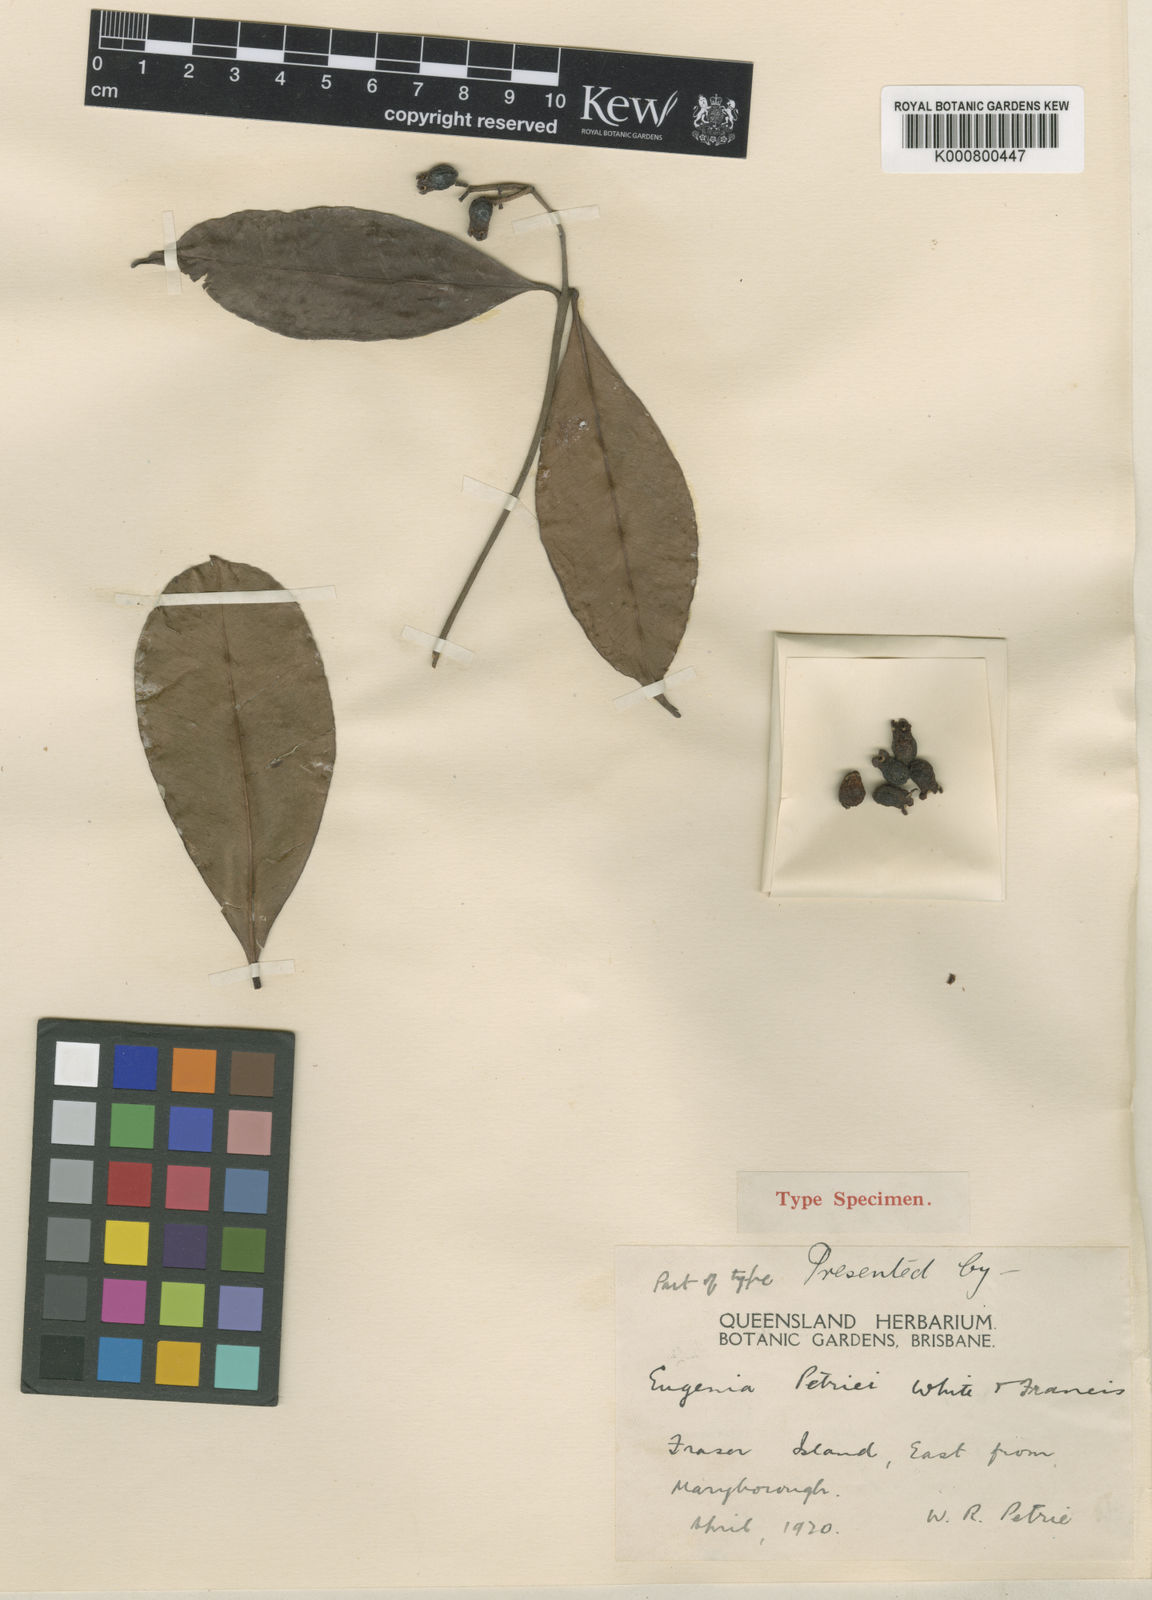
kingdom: Plantae
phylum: Tracheophyta
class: Magnoliopsida
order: Myrtales
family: Myrtaceae
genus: Syzygium
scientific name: Syzygium johnsonii
